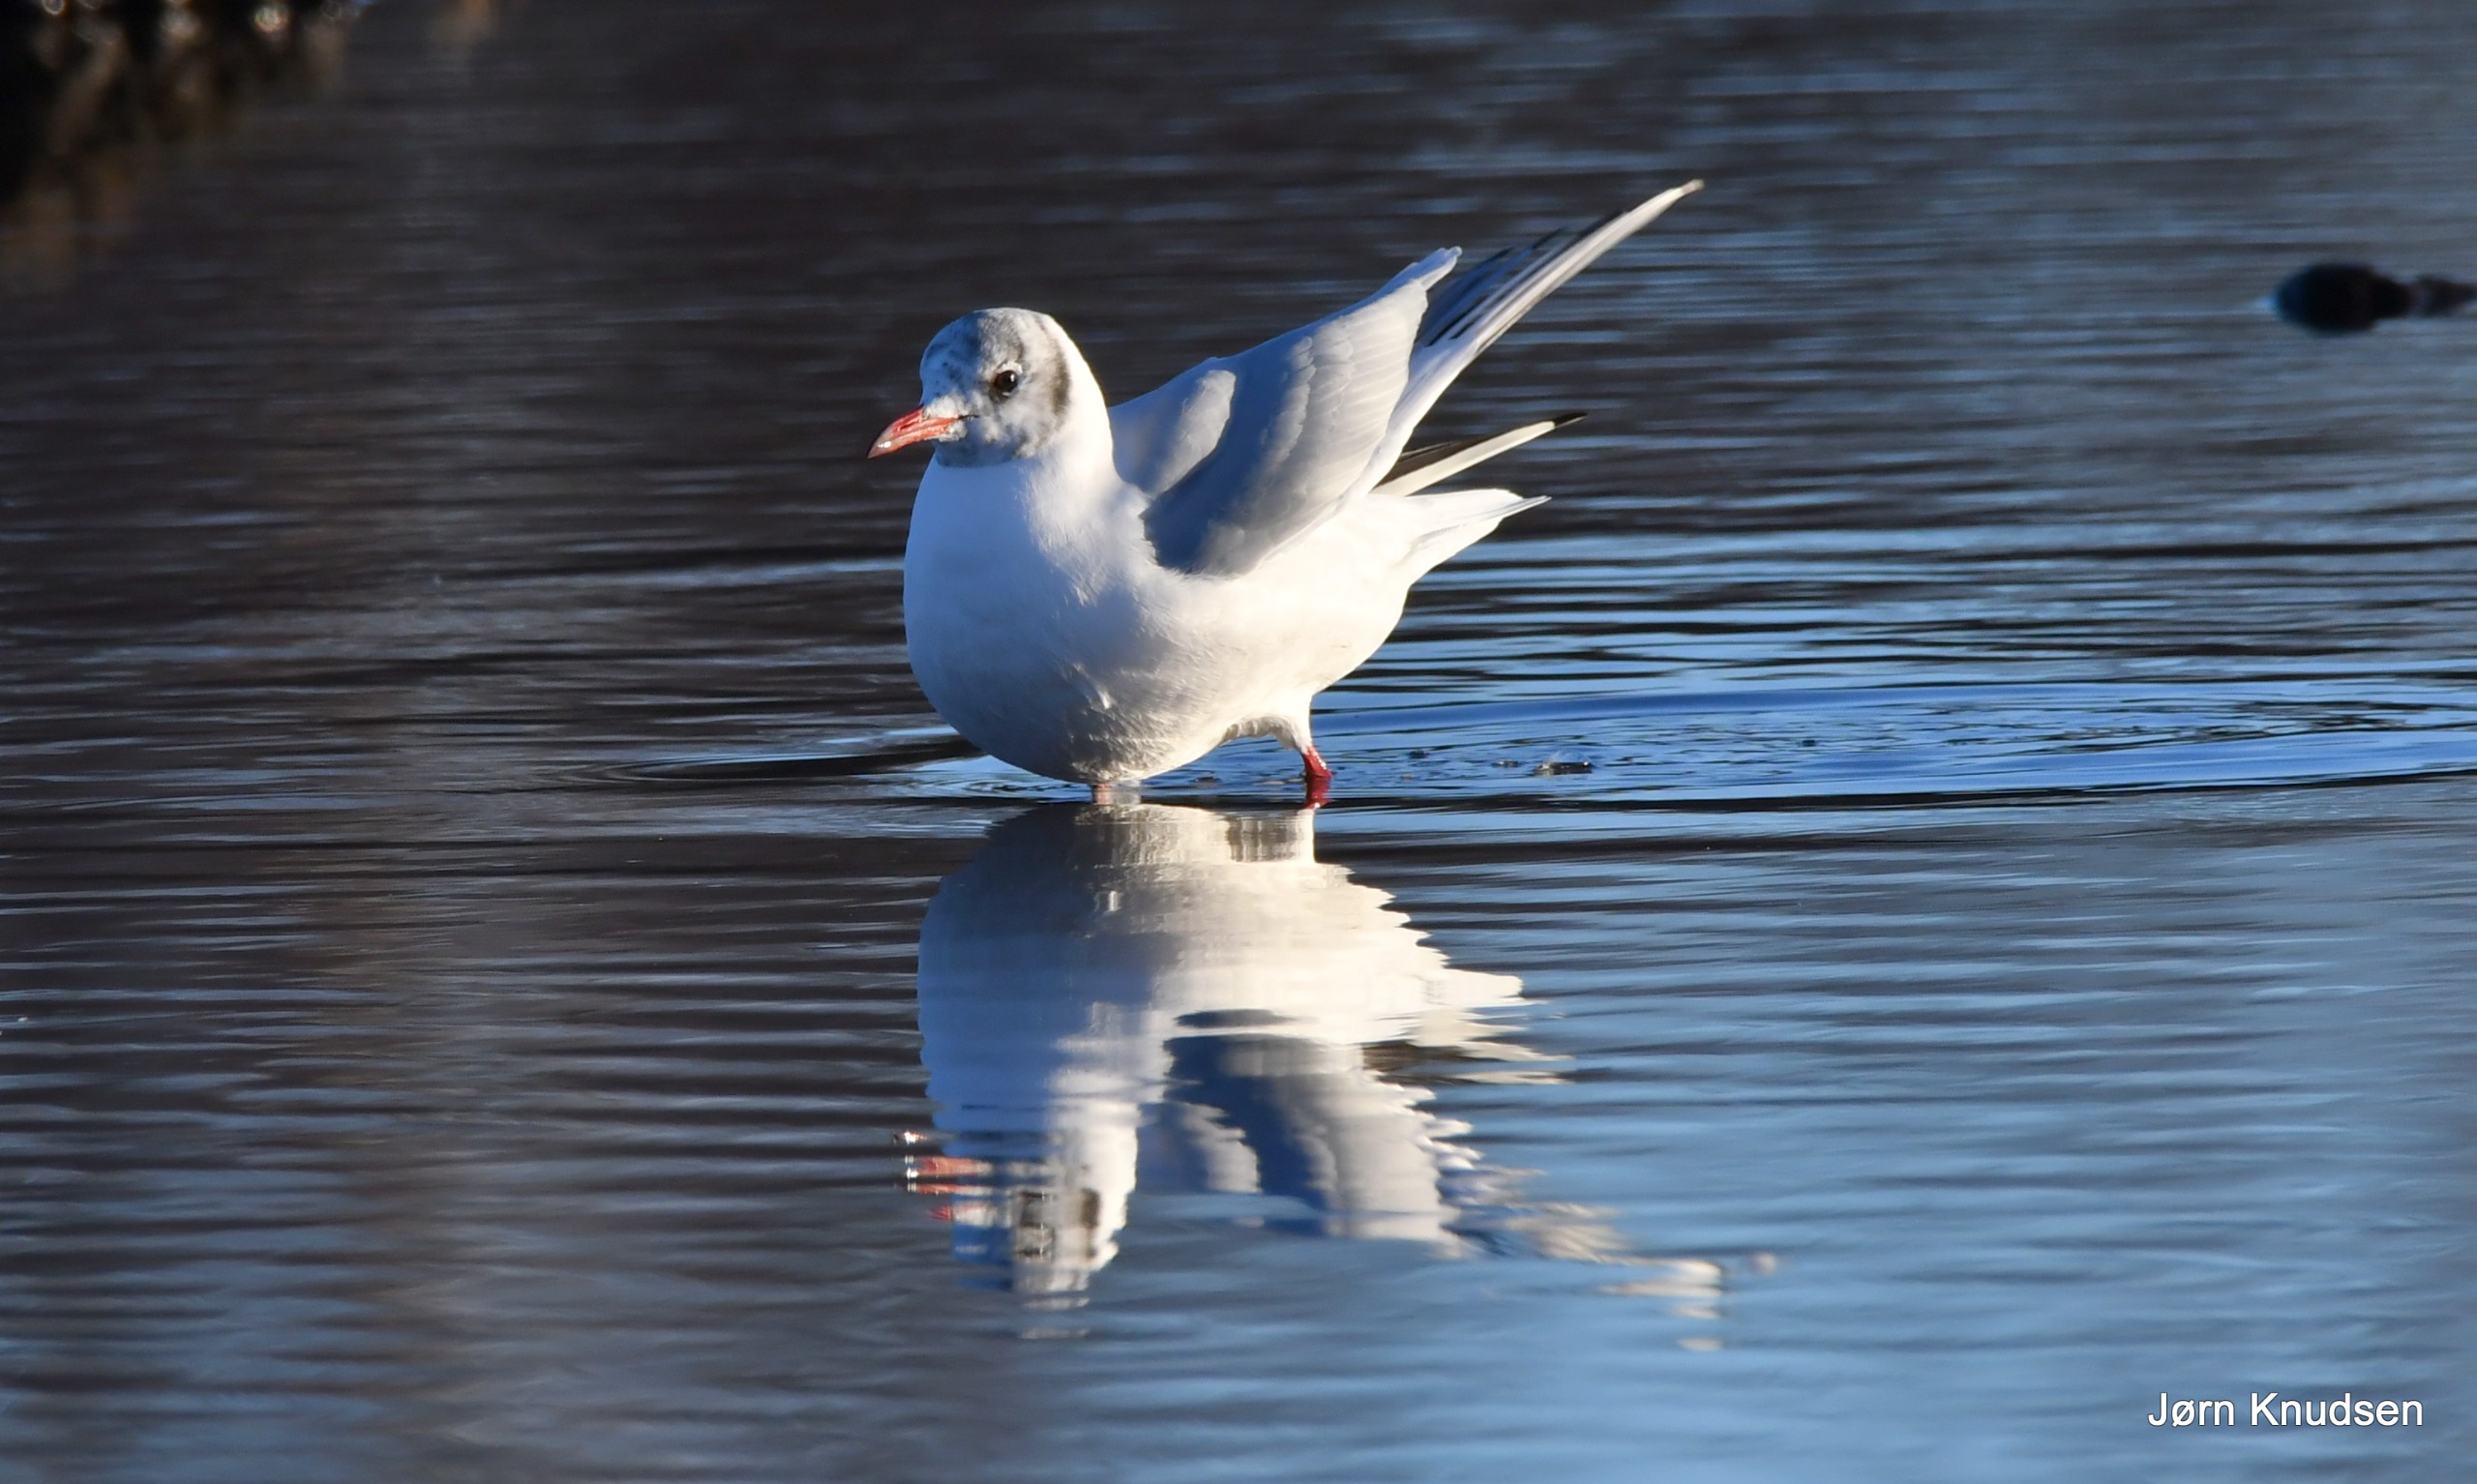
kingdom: Animalia
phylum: Chordata
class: Aves
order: Charadriiformes
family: Laridae
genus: Chroicocephalus
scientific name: Chroicocephalus ridibundus
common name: Hættemåge
